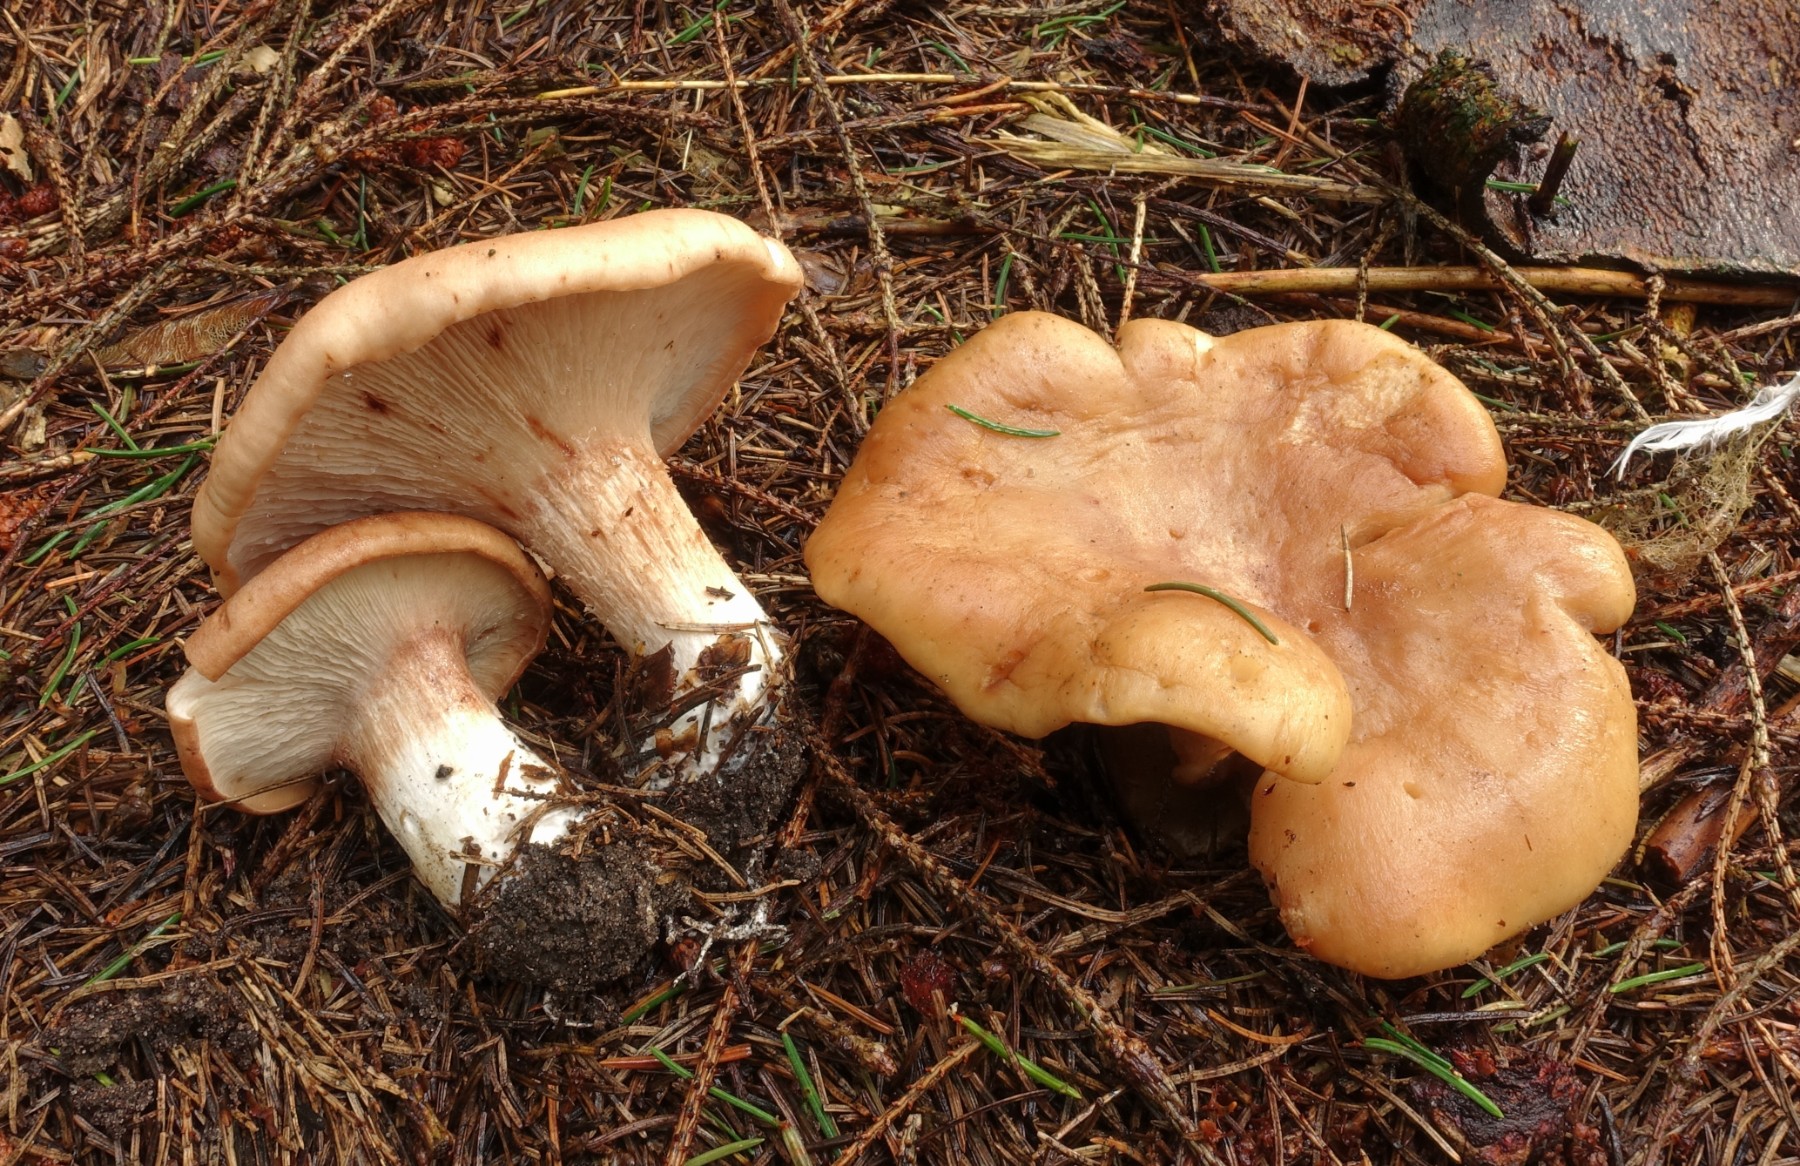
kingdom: Fungi
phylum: Basidiomycota
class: Agaricomycetes
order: Agaricales
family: Entolomataceae
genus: Clitopilus
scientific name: Clitopilus geminus
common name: kødfarvet troldhat
